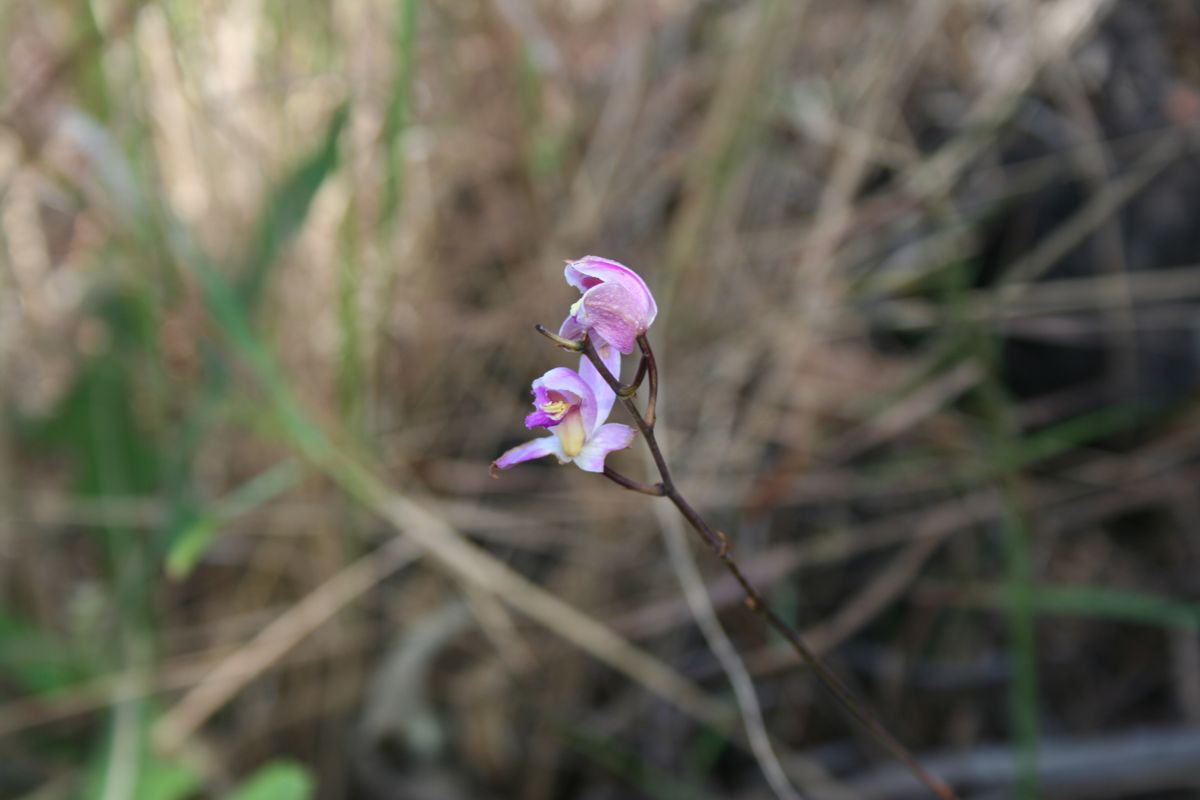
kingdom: Plantae
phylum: Tracheophyta
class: Liliopsida
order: Asparagales
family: Orchidaceae
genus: Bletia
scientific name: Bletia
